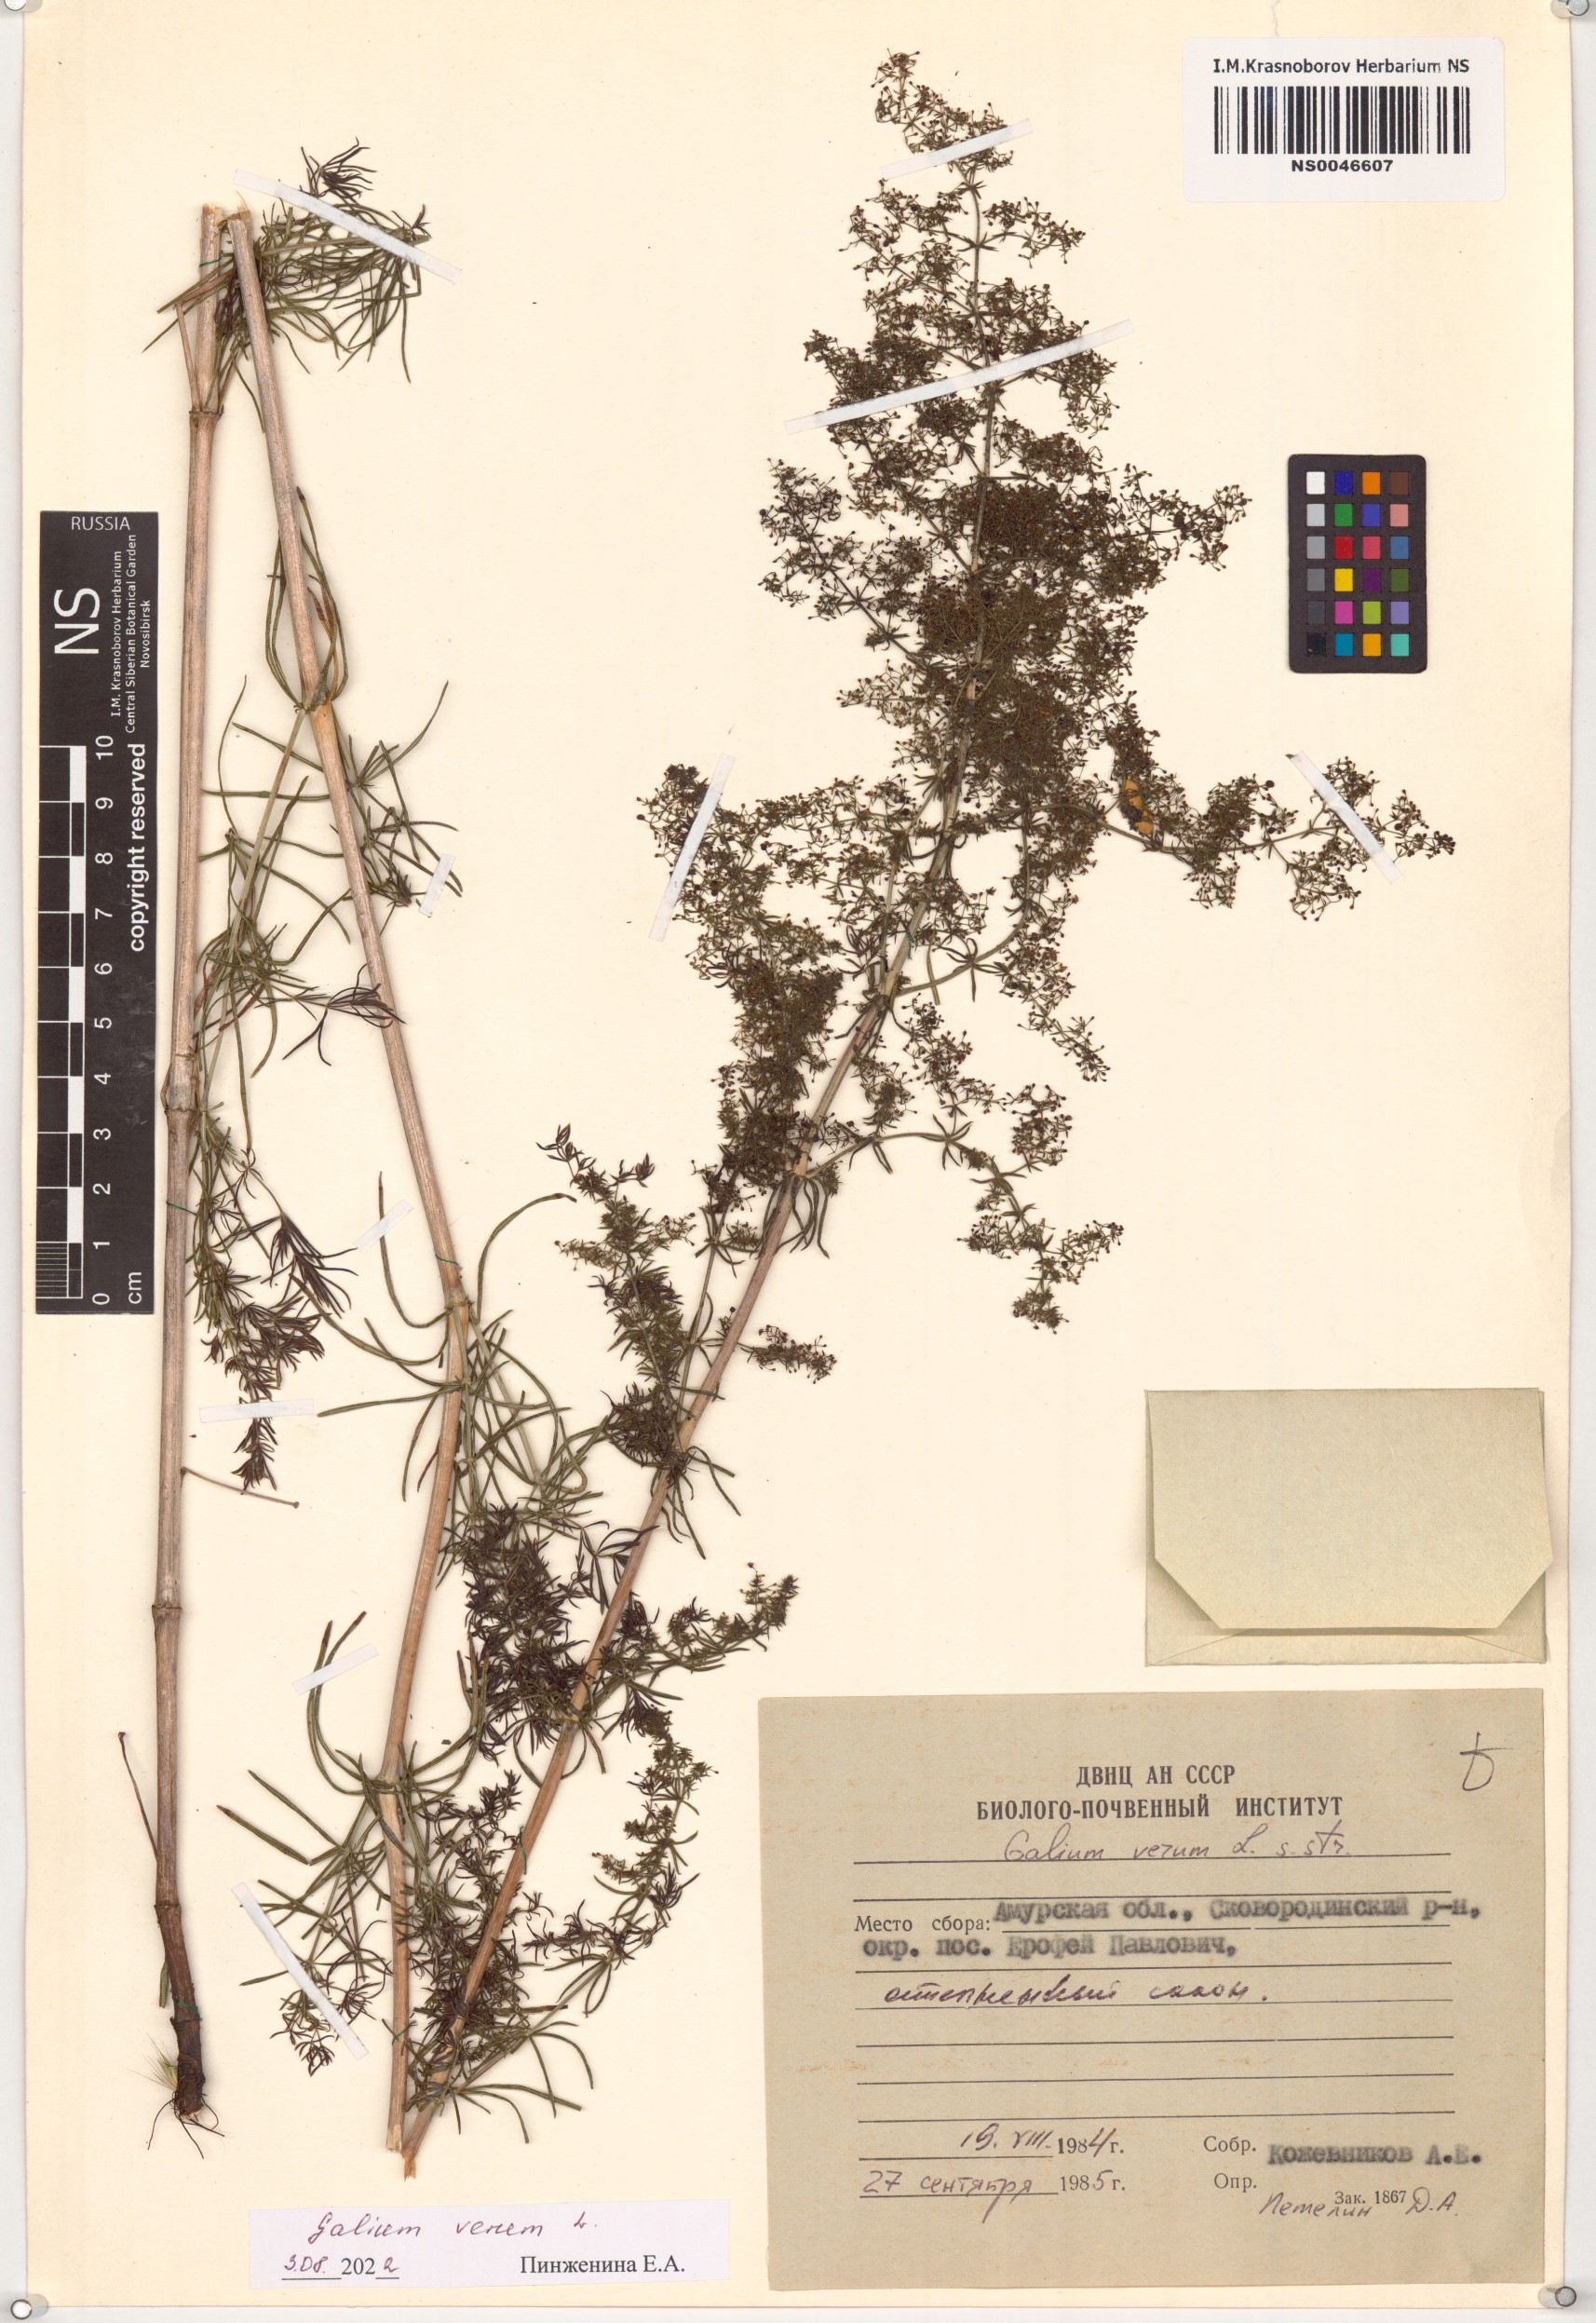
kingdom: Plantae
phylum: Tracheophyta
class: Magnoliopsida
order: Gentianales
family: Rubiaceae
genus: Galium
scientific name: Galium verum
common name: Lady's bedstraw
